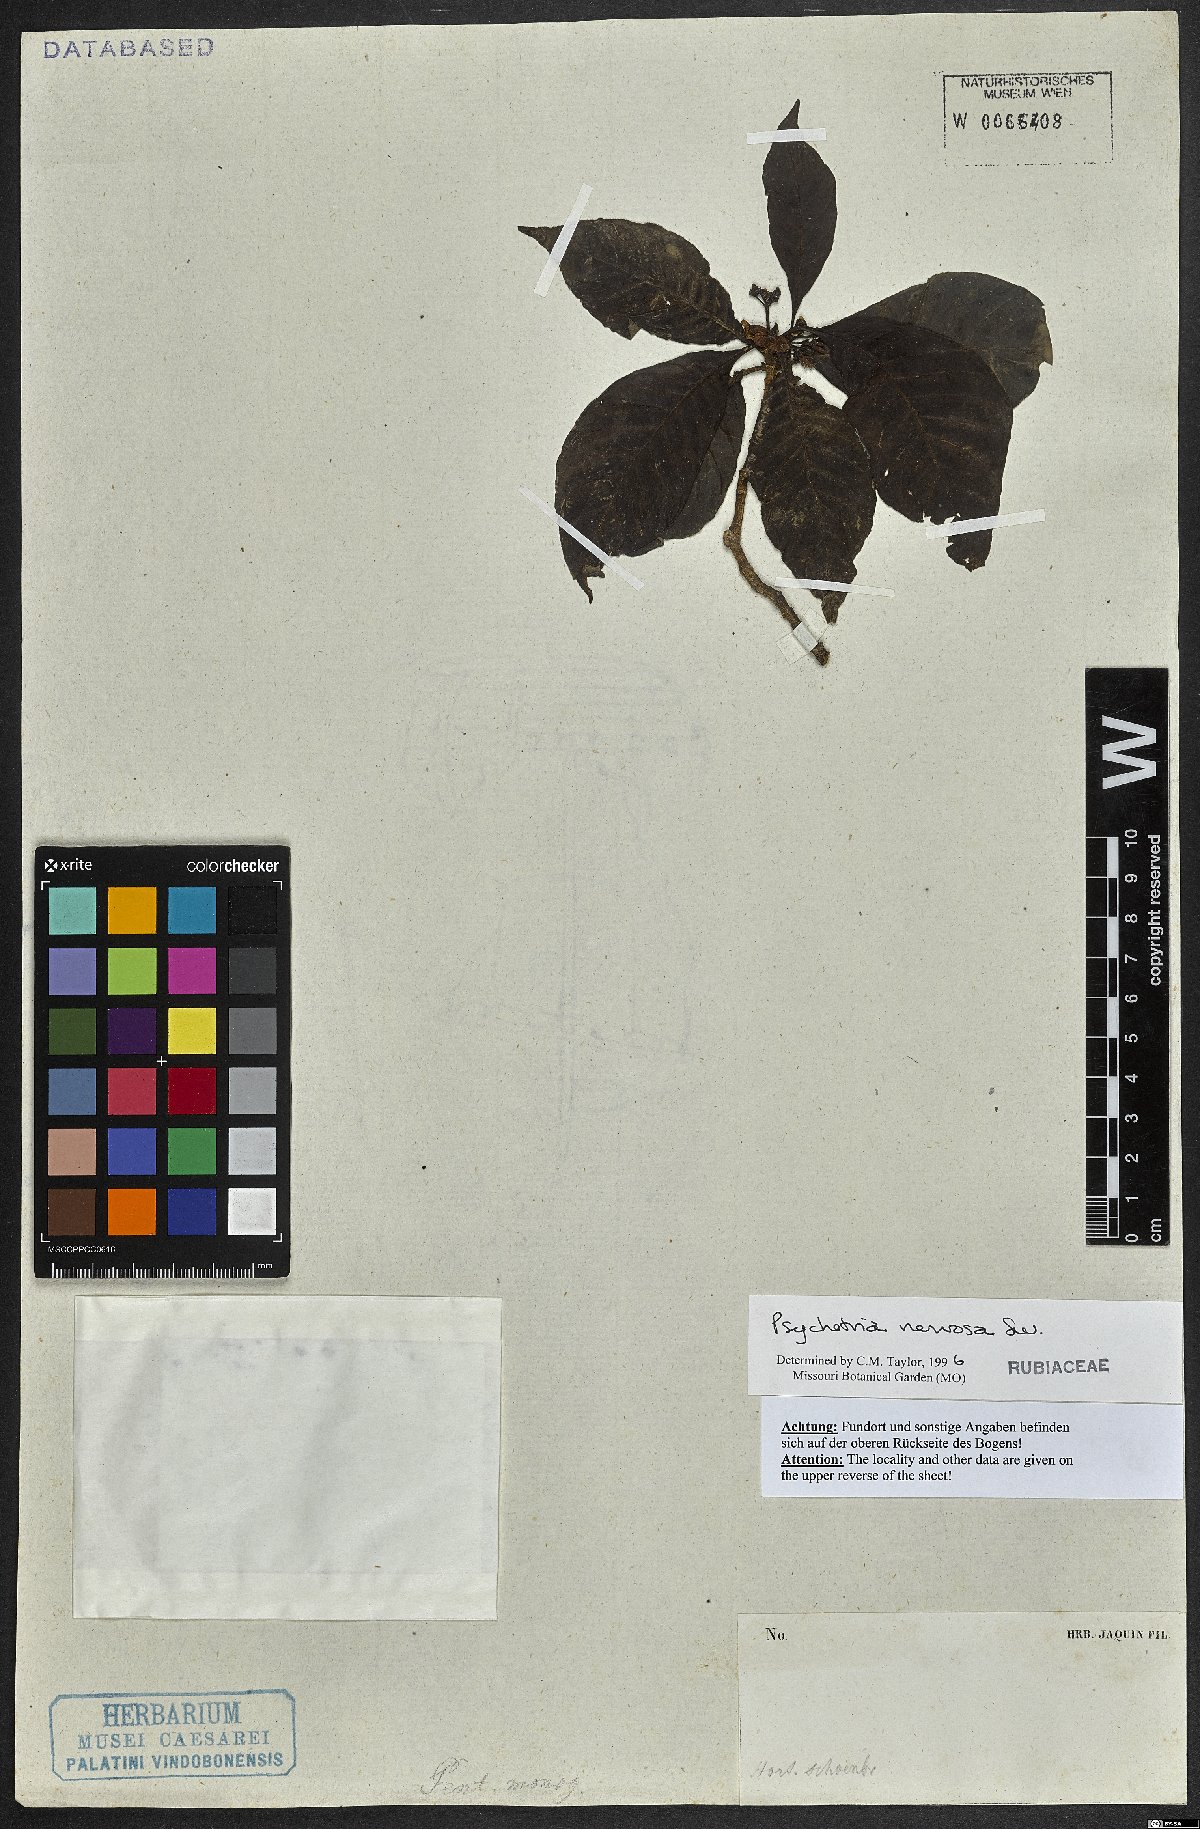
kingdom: Plantae
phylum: Tracheophyta
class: Magnoliopsida
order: Gentianales
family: Rubiaceae
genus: Psychotria
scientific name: Psychotria nervosa
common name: Bastard cankerberry
